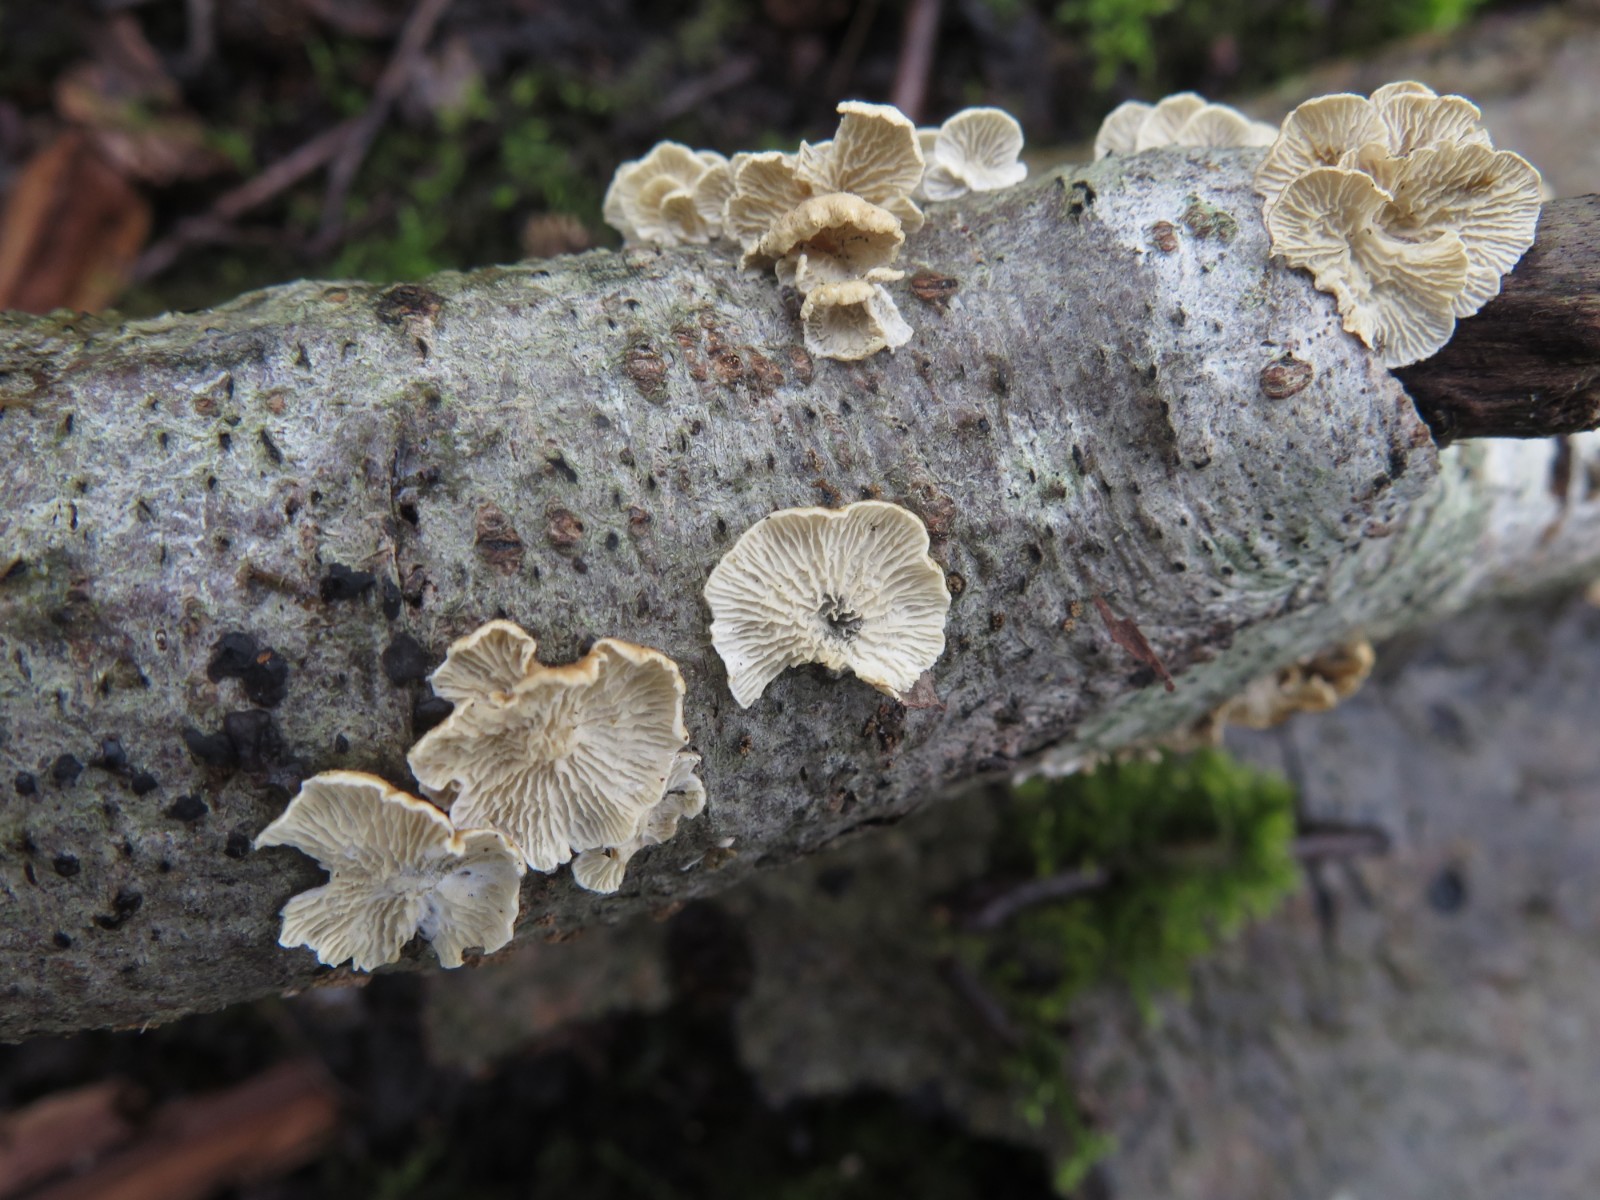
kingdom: Fungi
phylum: Basidiomycota
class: Agaricomycetes
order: Amylocorticiales
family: Amylocorticiaceae
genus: Plicaturopsis
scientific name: Plicaturopsis crispa
